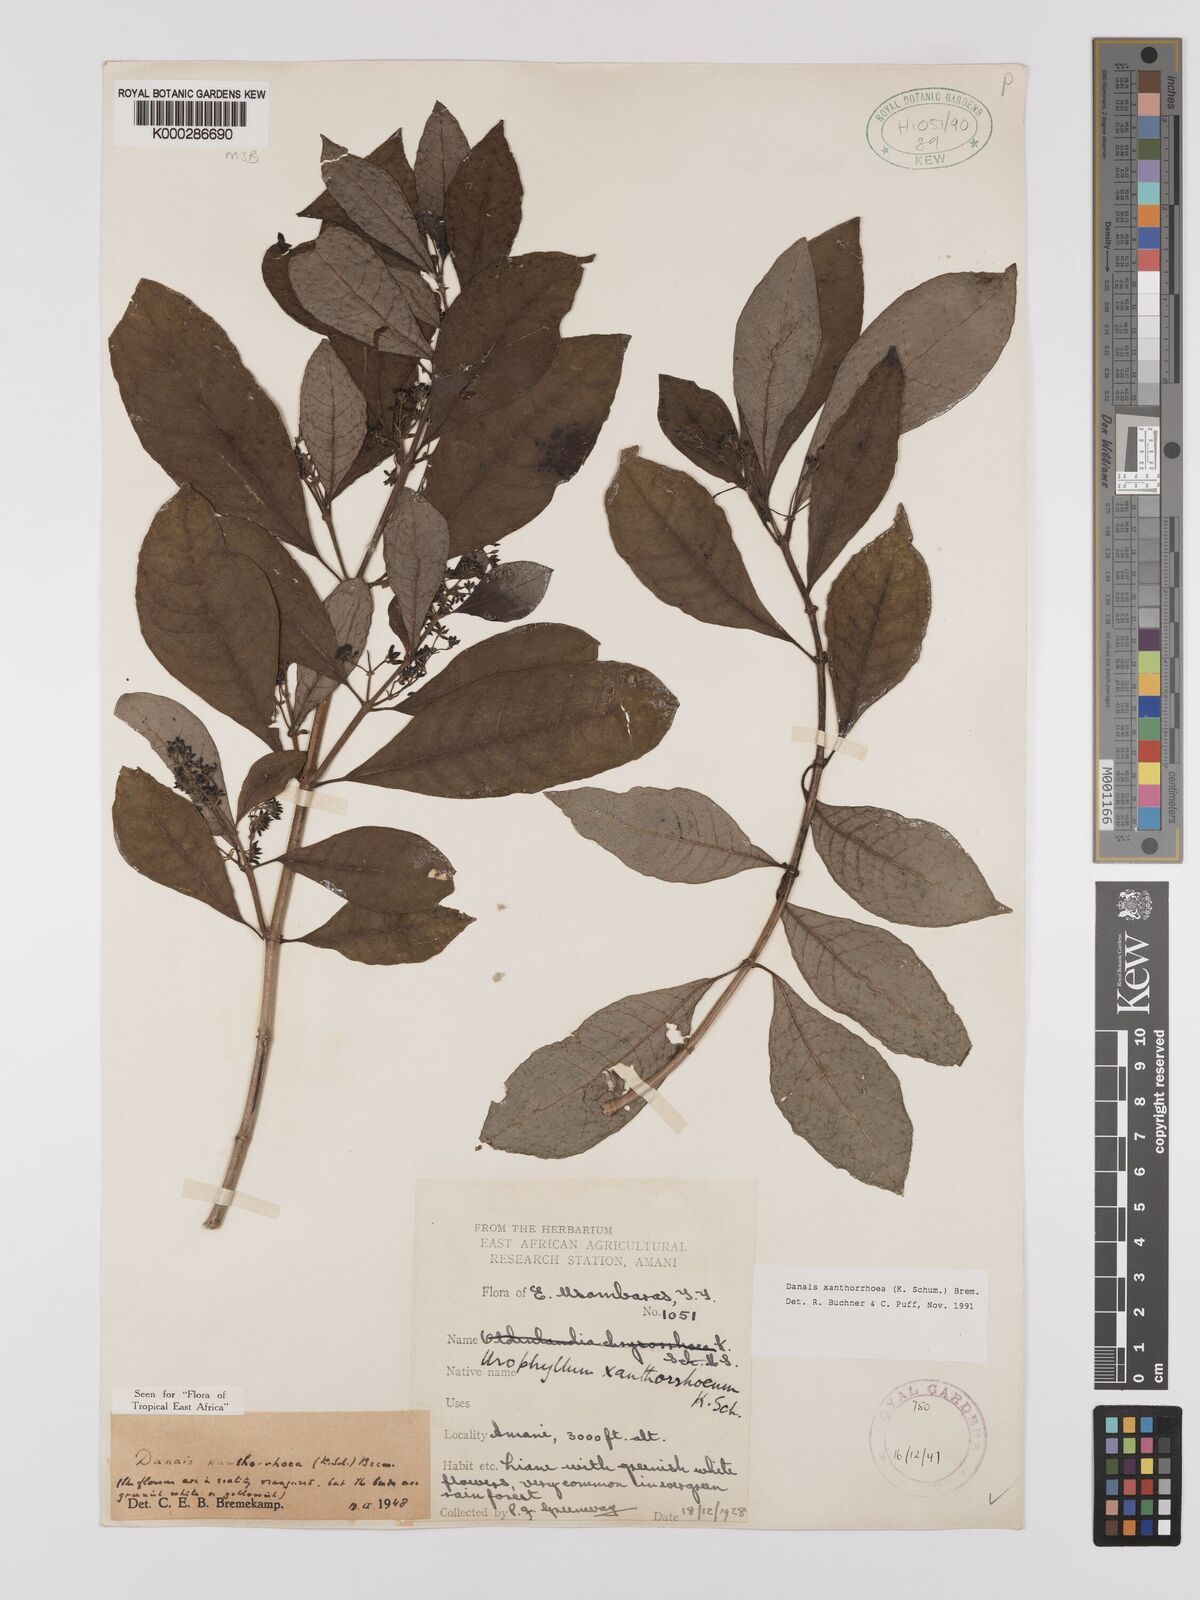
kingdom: Plantae
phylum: Tracheophyta
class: Magnoliopsida
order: Gentianales
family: Rubiaceae
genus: Danais
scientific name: Danais xanthorrhoea
